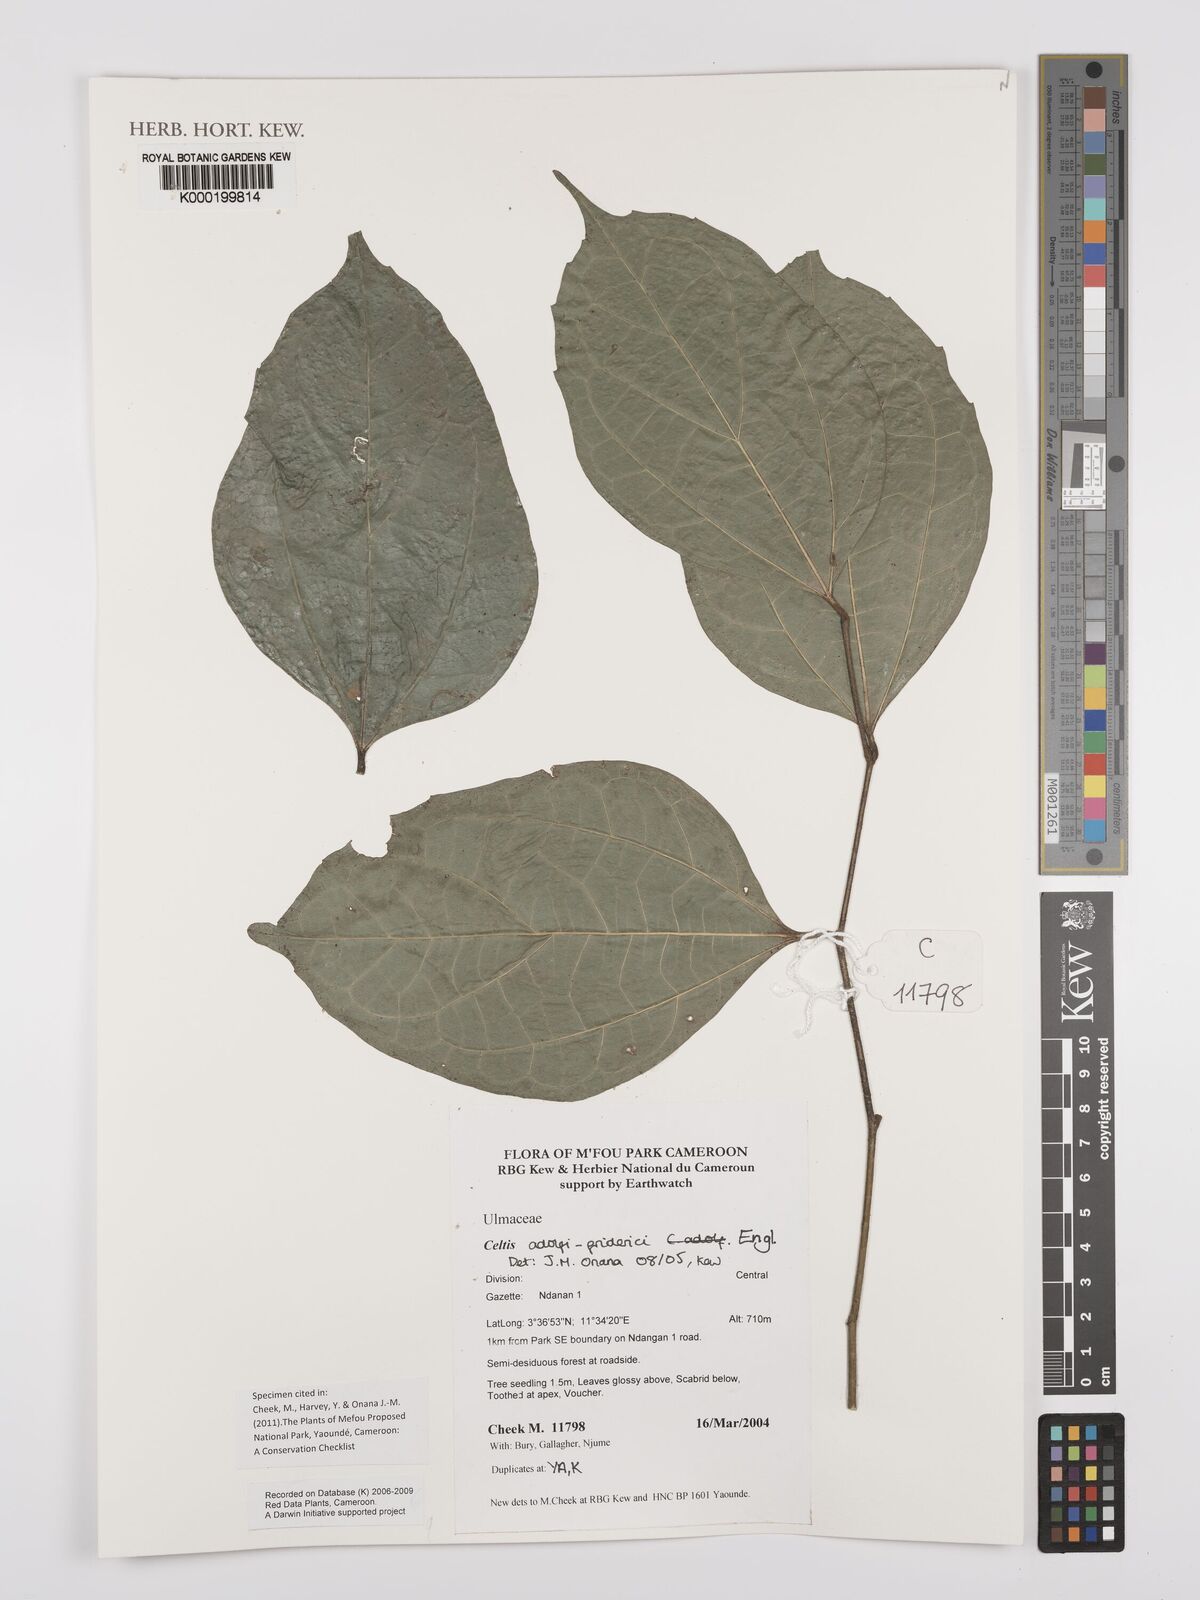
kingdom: Plantae
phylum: Tracheophyta
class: Magnoliopsida
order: Rosales
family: Cannabaceae
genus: Celtis
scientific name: Celtis adolfi-friderici
